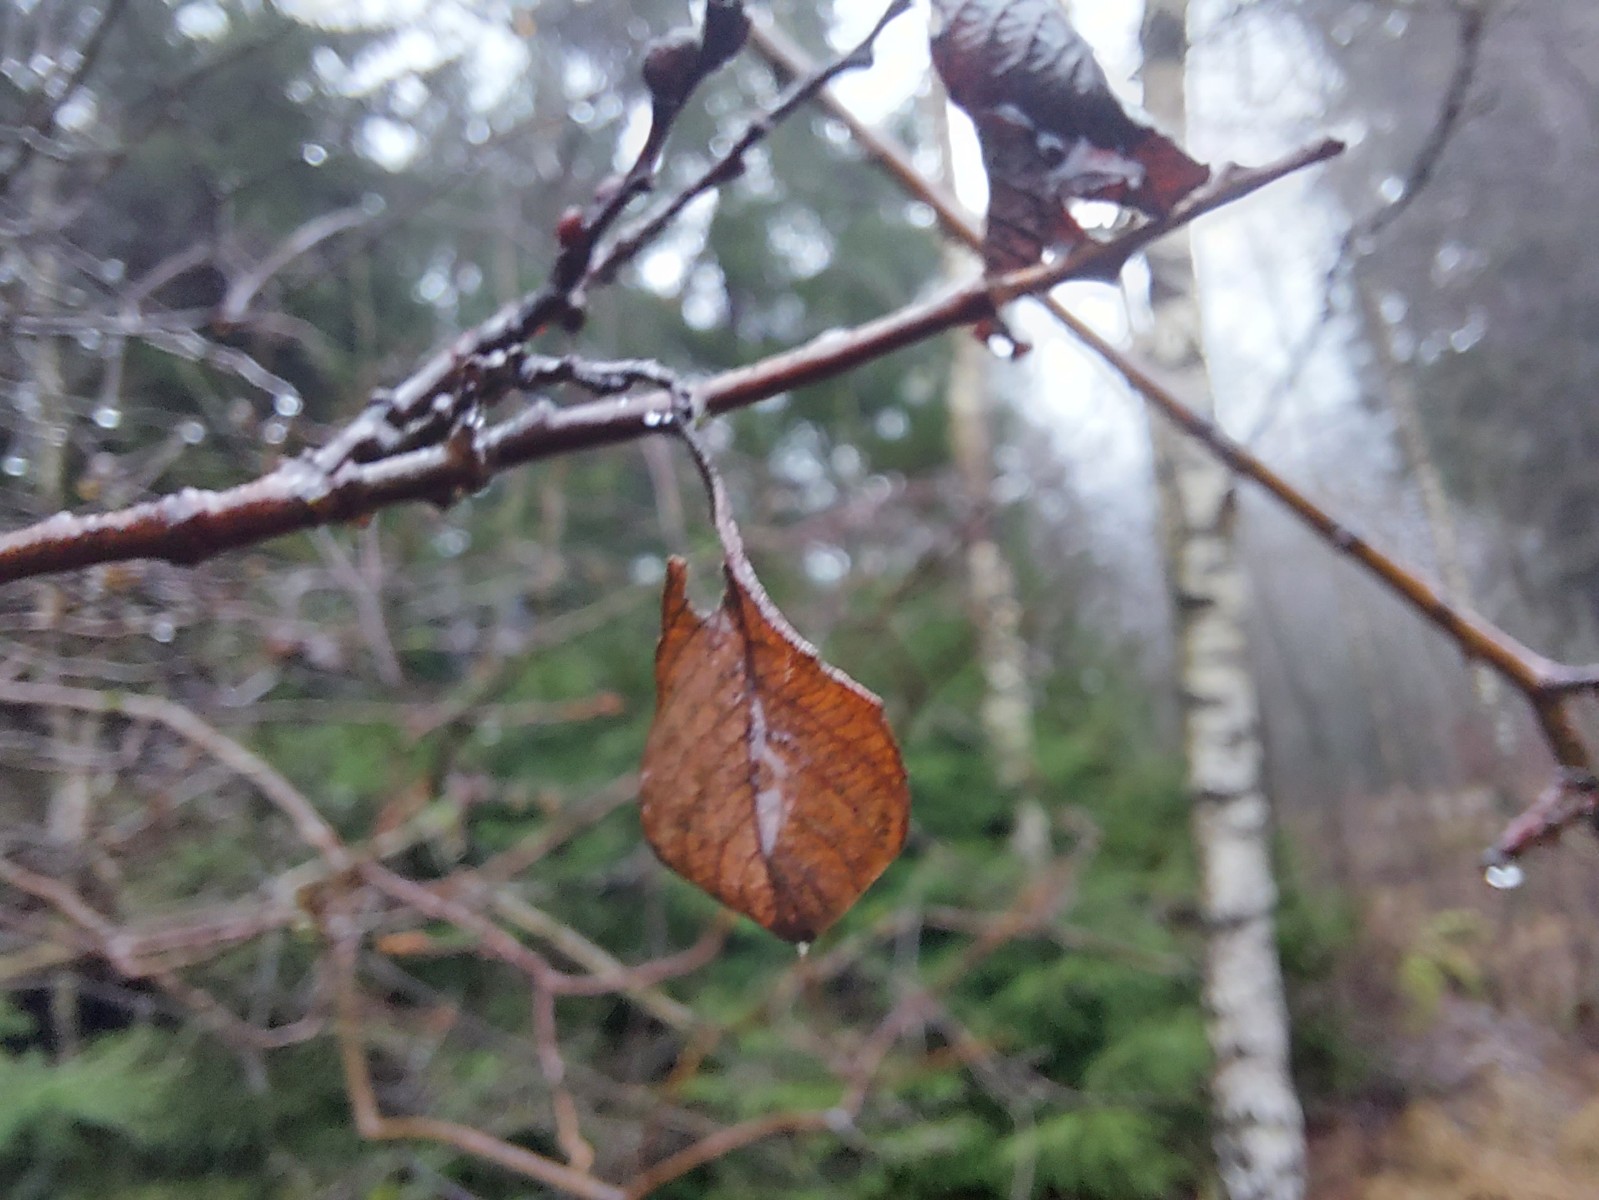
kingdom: Fungi
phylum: Basidiomycota
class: Agaricomycetes
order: Auriculariales
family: Auriculariaceae
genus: Exidia
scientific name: Exidia recisa
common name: pile-bævretop
